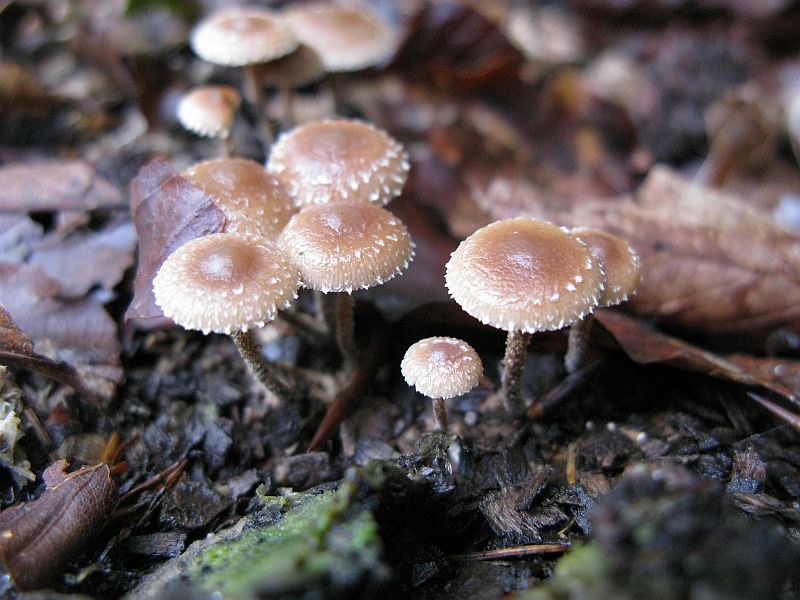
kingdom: Fungi
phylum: Basidiomycota
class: Agaricomycetes
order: Agaricales
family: Strophariaceae
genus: Deconica
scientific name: Deconica crobula
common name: træflis-stråhat
